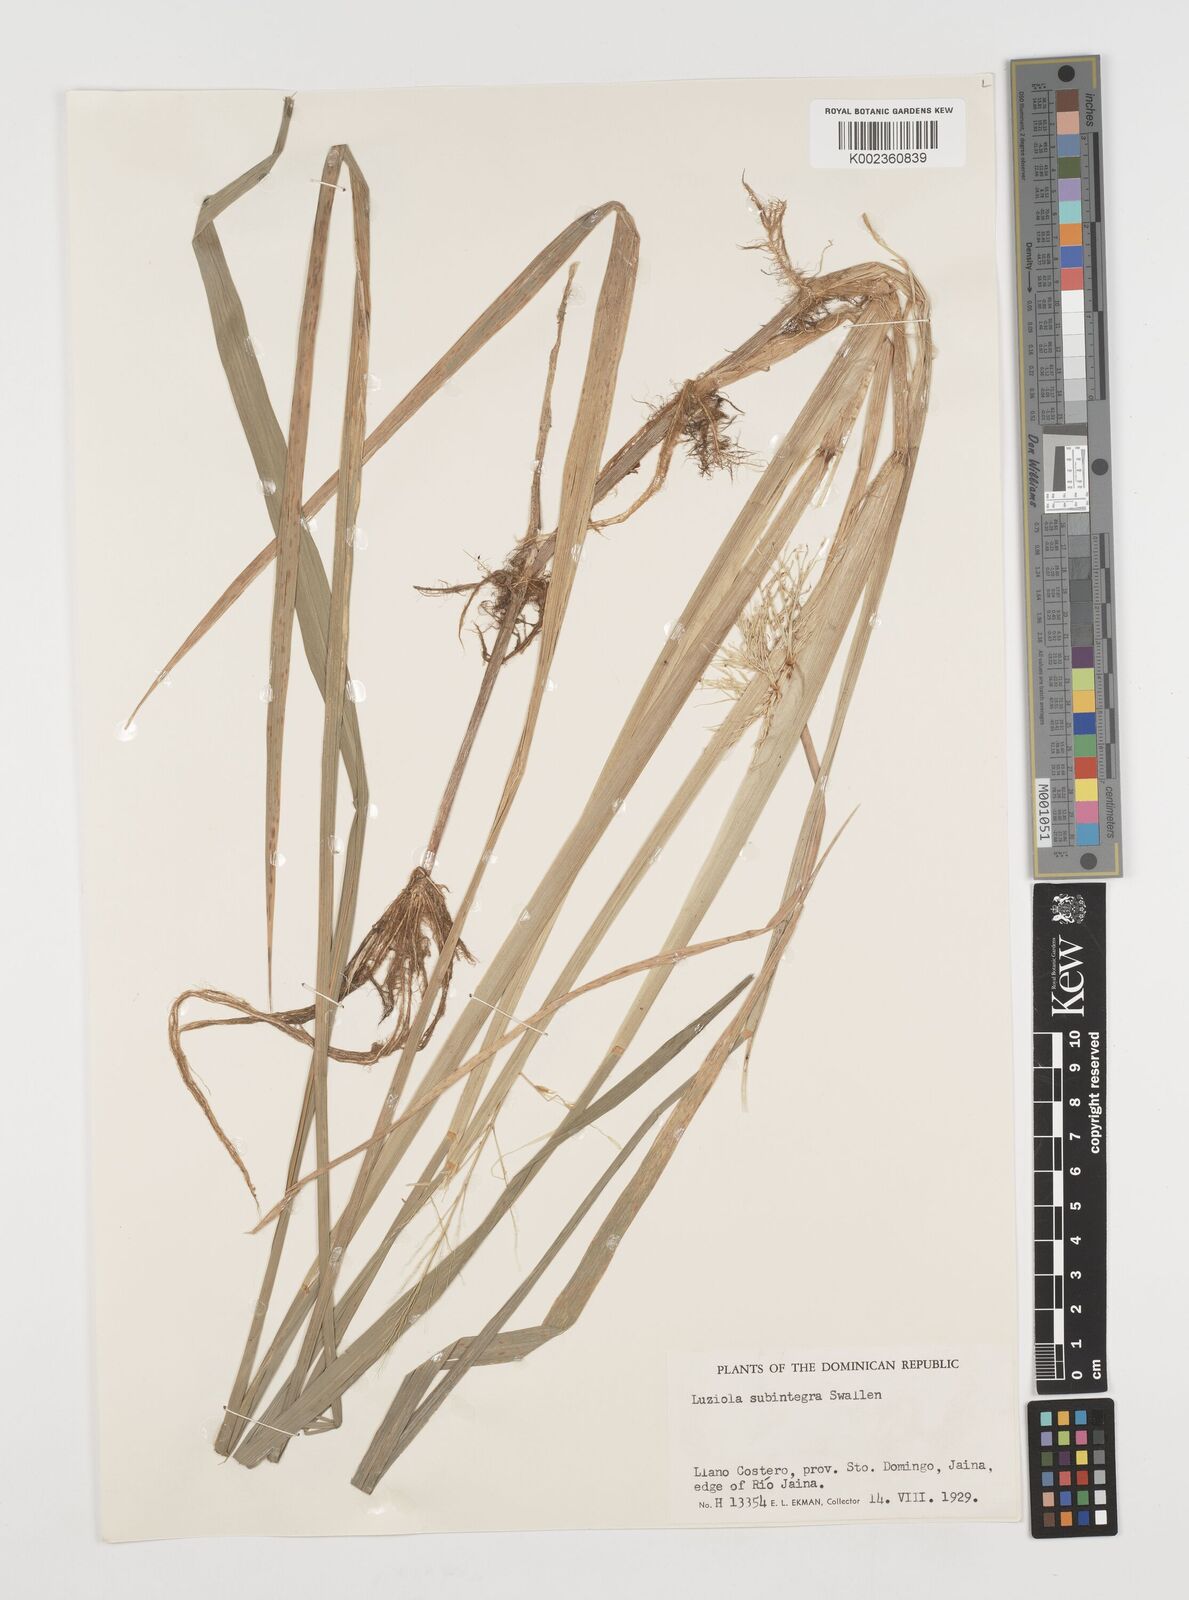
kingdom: Plantae
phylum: Tracheophyta
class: Liliopsida
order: Poales
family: Poaceae
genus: Luziola
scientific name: Luziola subintegra
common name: Large watergrass
